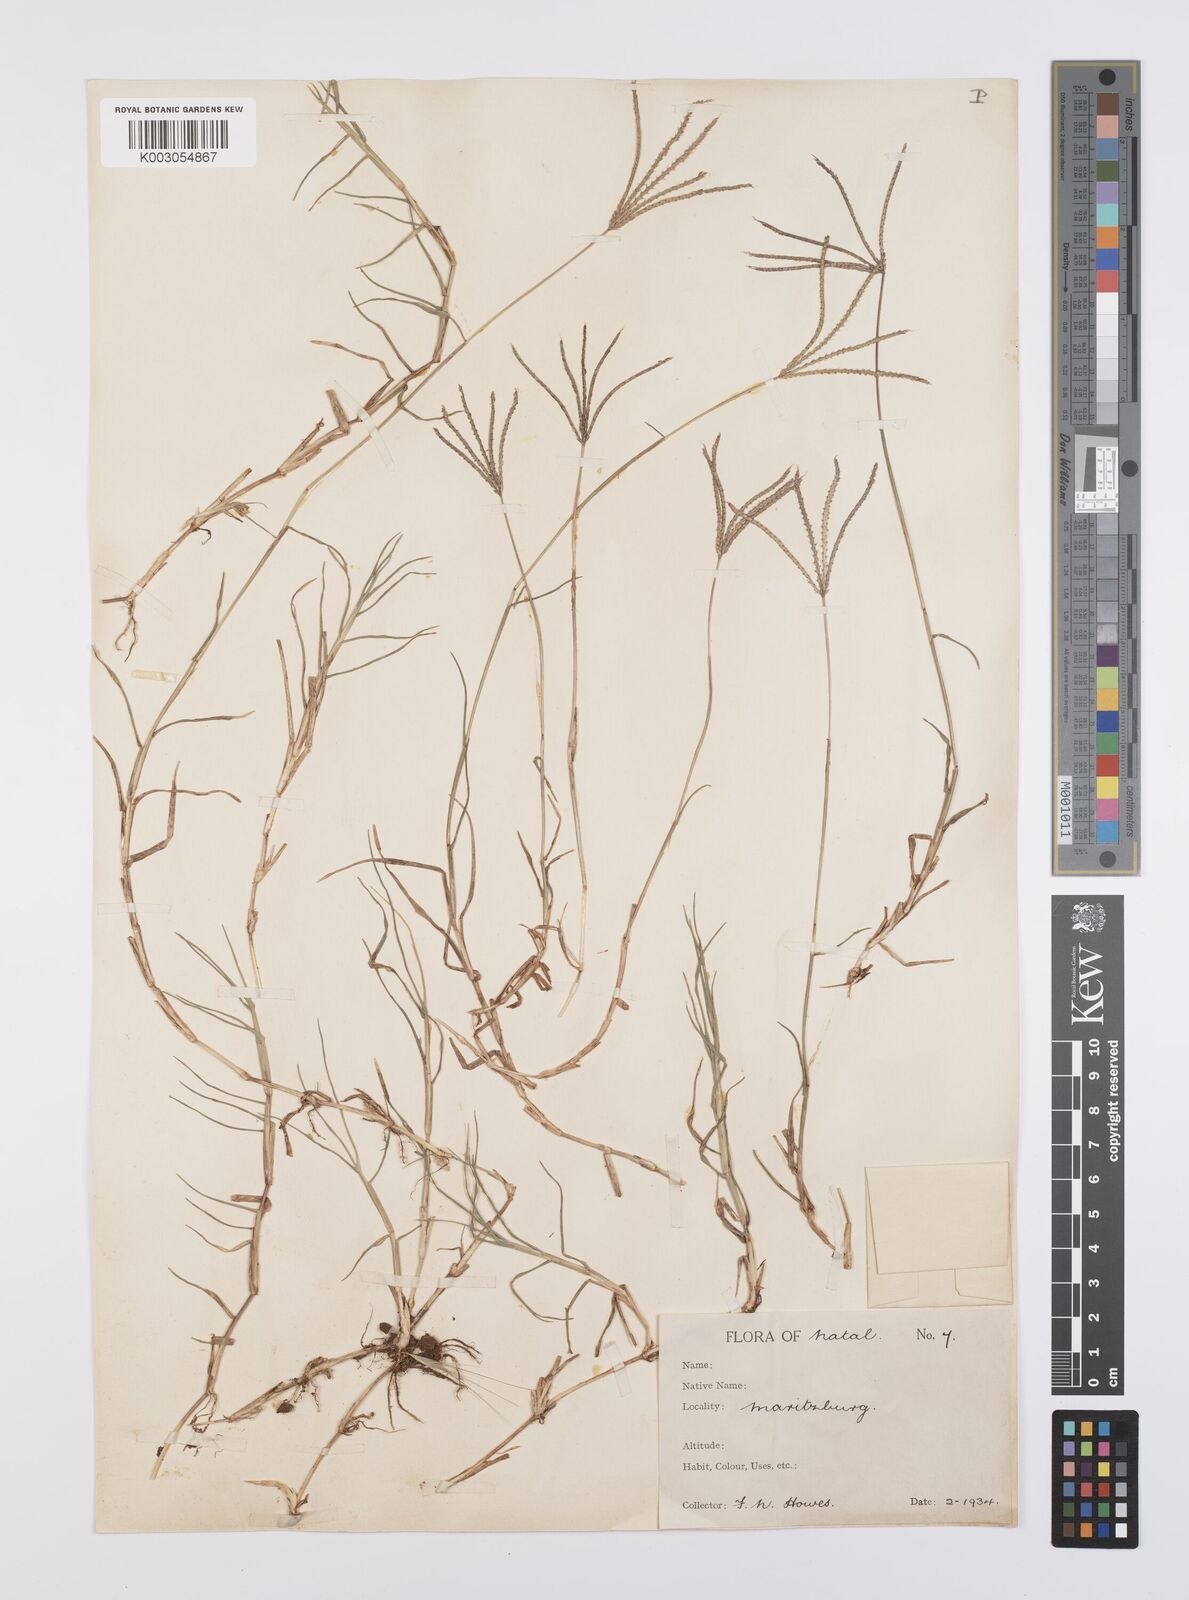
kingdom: Plantae
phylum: Tracheophyta
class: Liliopsida
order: Poales
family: Poaceae
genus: Cynodon
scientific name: Cynodon dactylon
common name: Bermuda grass
